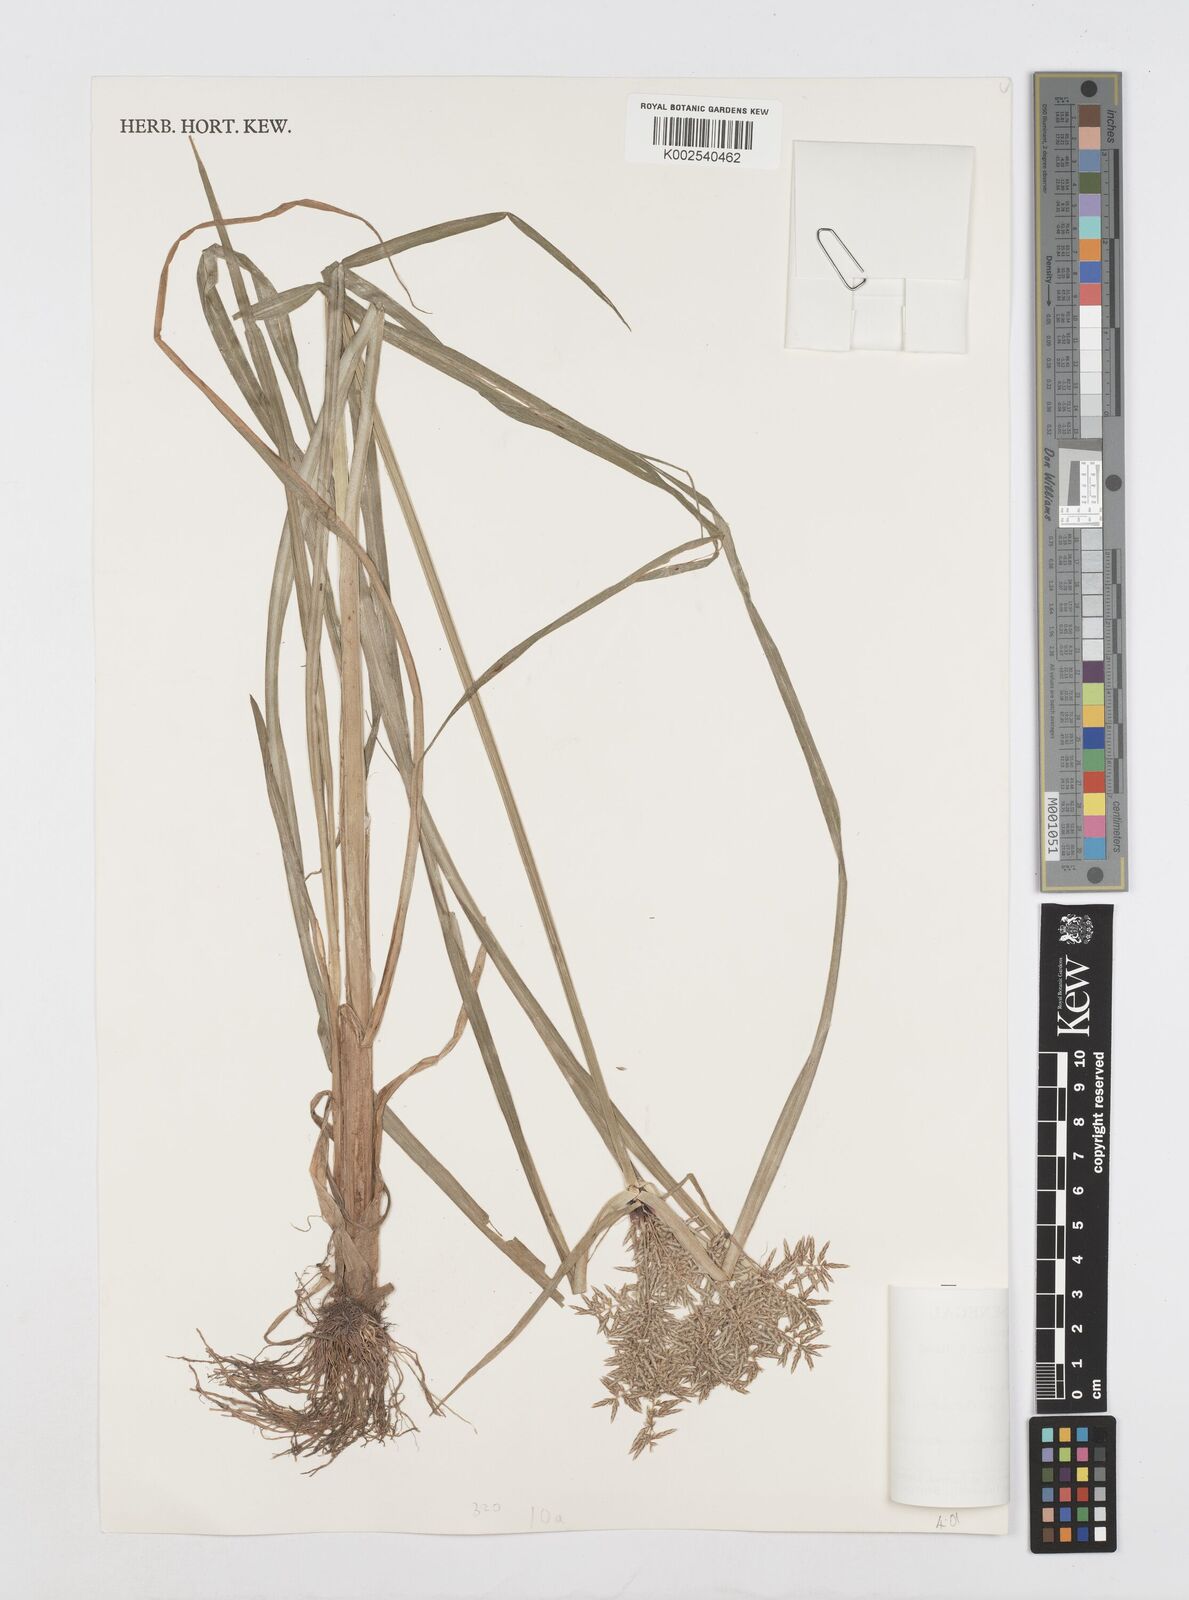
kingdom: Plantae
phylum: Tracheophyta
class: Liliopsida
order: Poales
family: Cyperaceae
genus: Cyperus
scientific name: Cyperus macrostachyos
